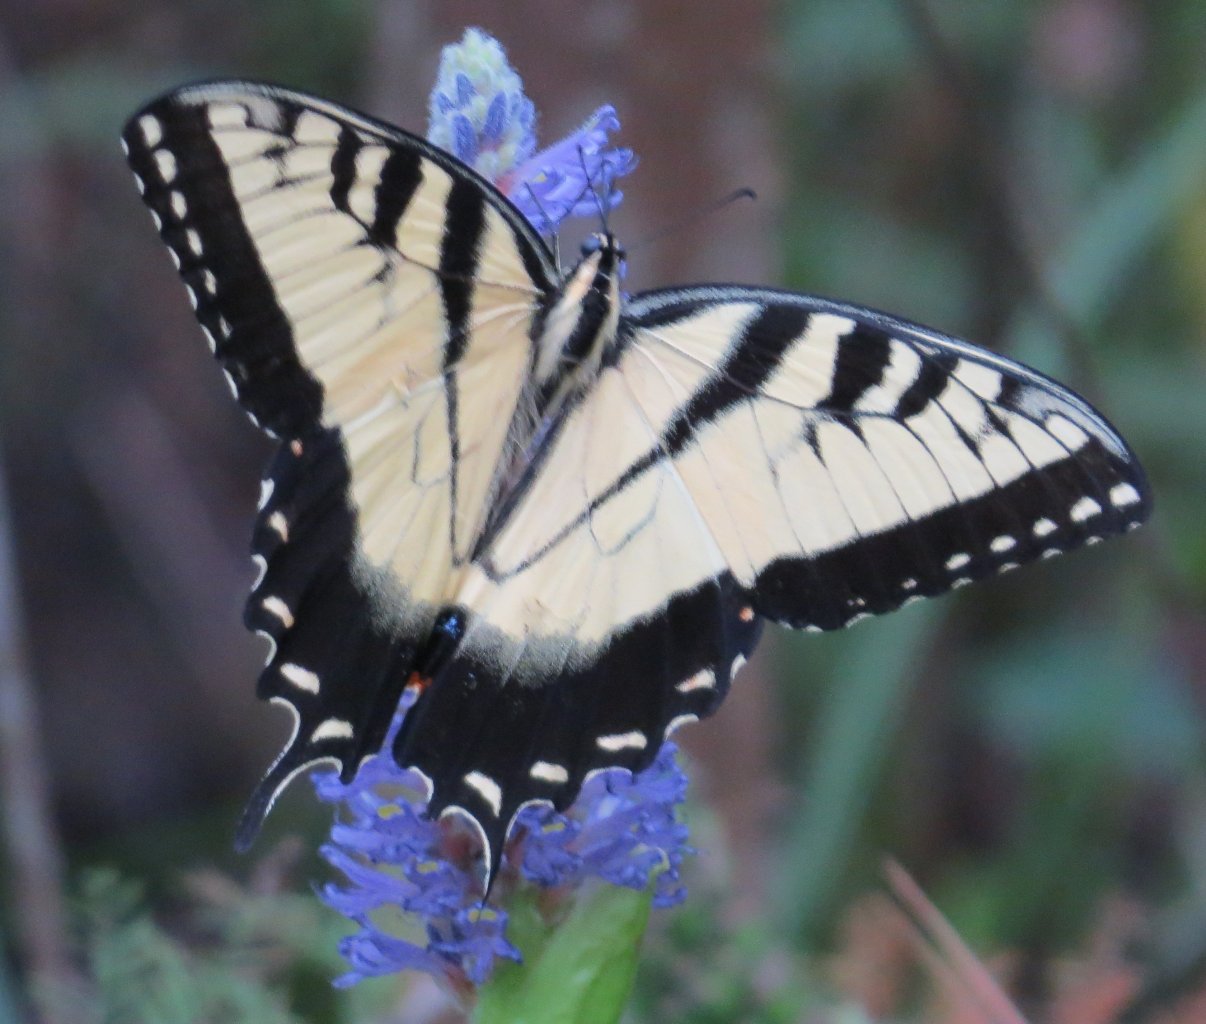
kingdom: Animalia
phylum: Arthropoda
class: Insecta
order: Lepidoptera
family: Papilionidae
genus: Pterourus
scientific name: Pterourus glaucus
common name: Eastern Tiger Swallowtail
